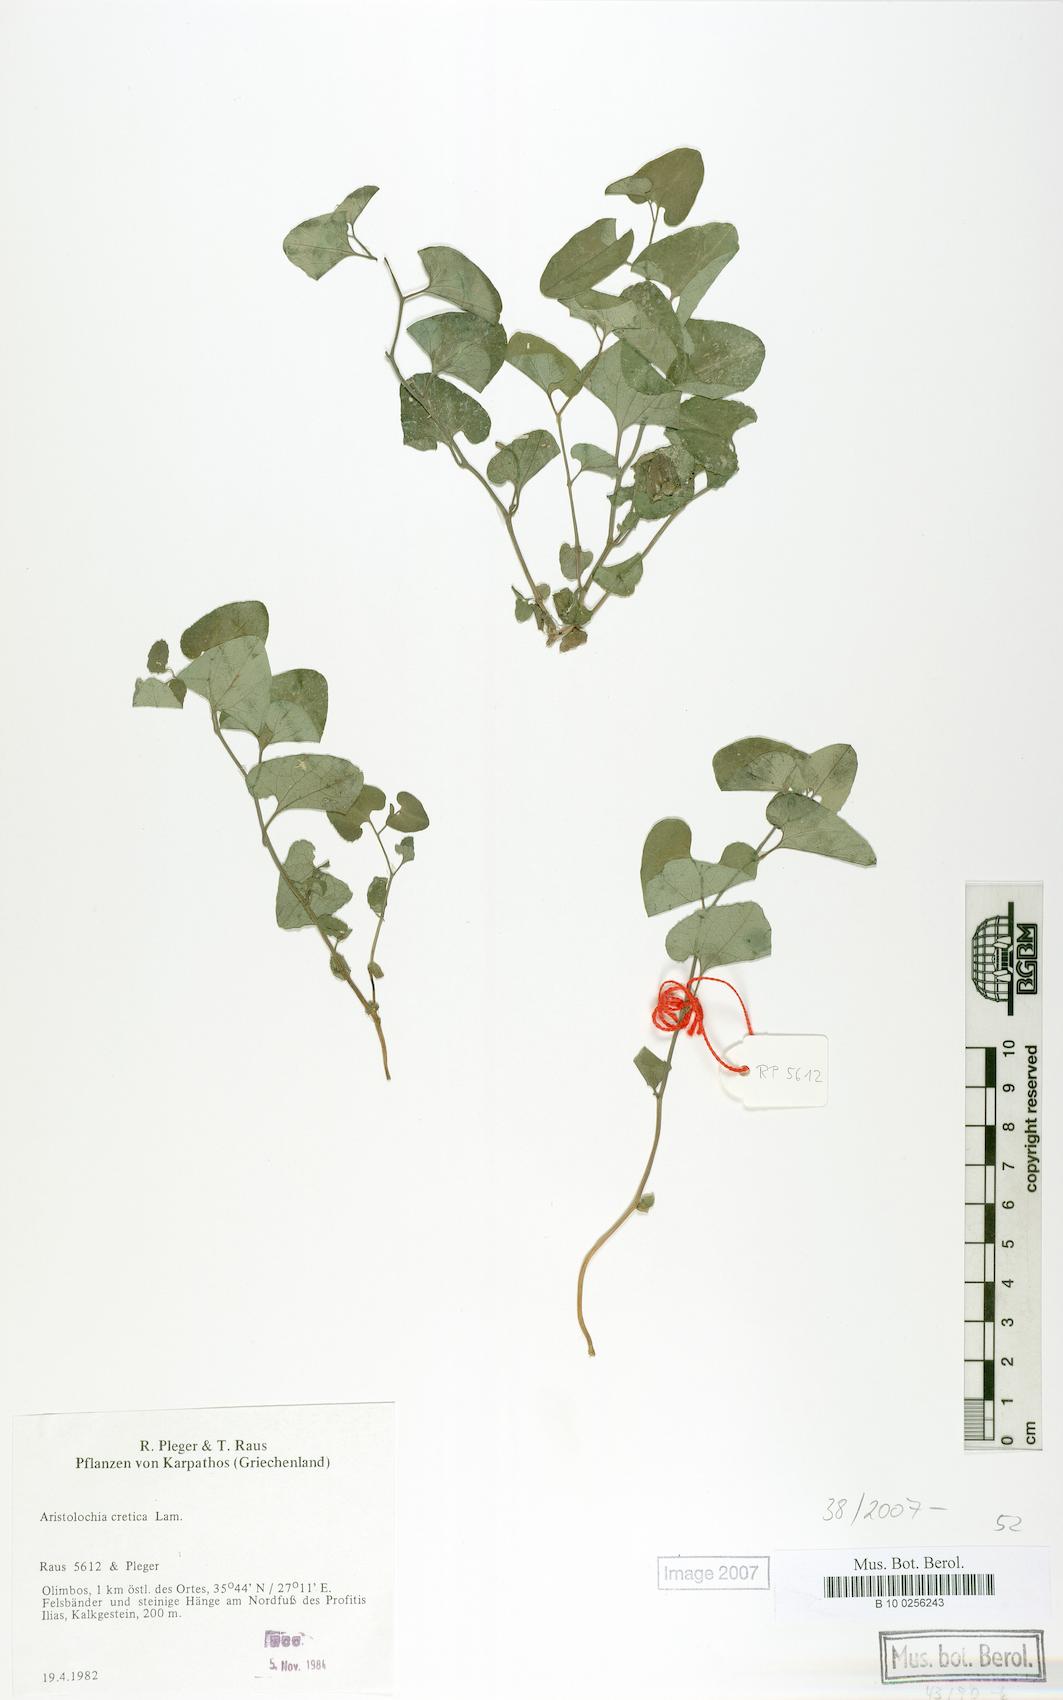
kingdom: Plantae
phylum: Tracheophyta
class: Magnoliopsida
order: Piperales
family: Aristolochiaceae
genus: Aristolochia
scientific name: Aristolochia cretica
